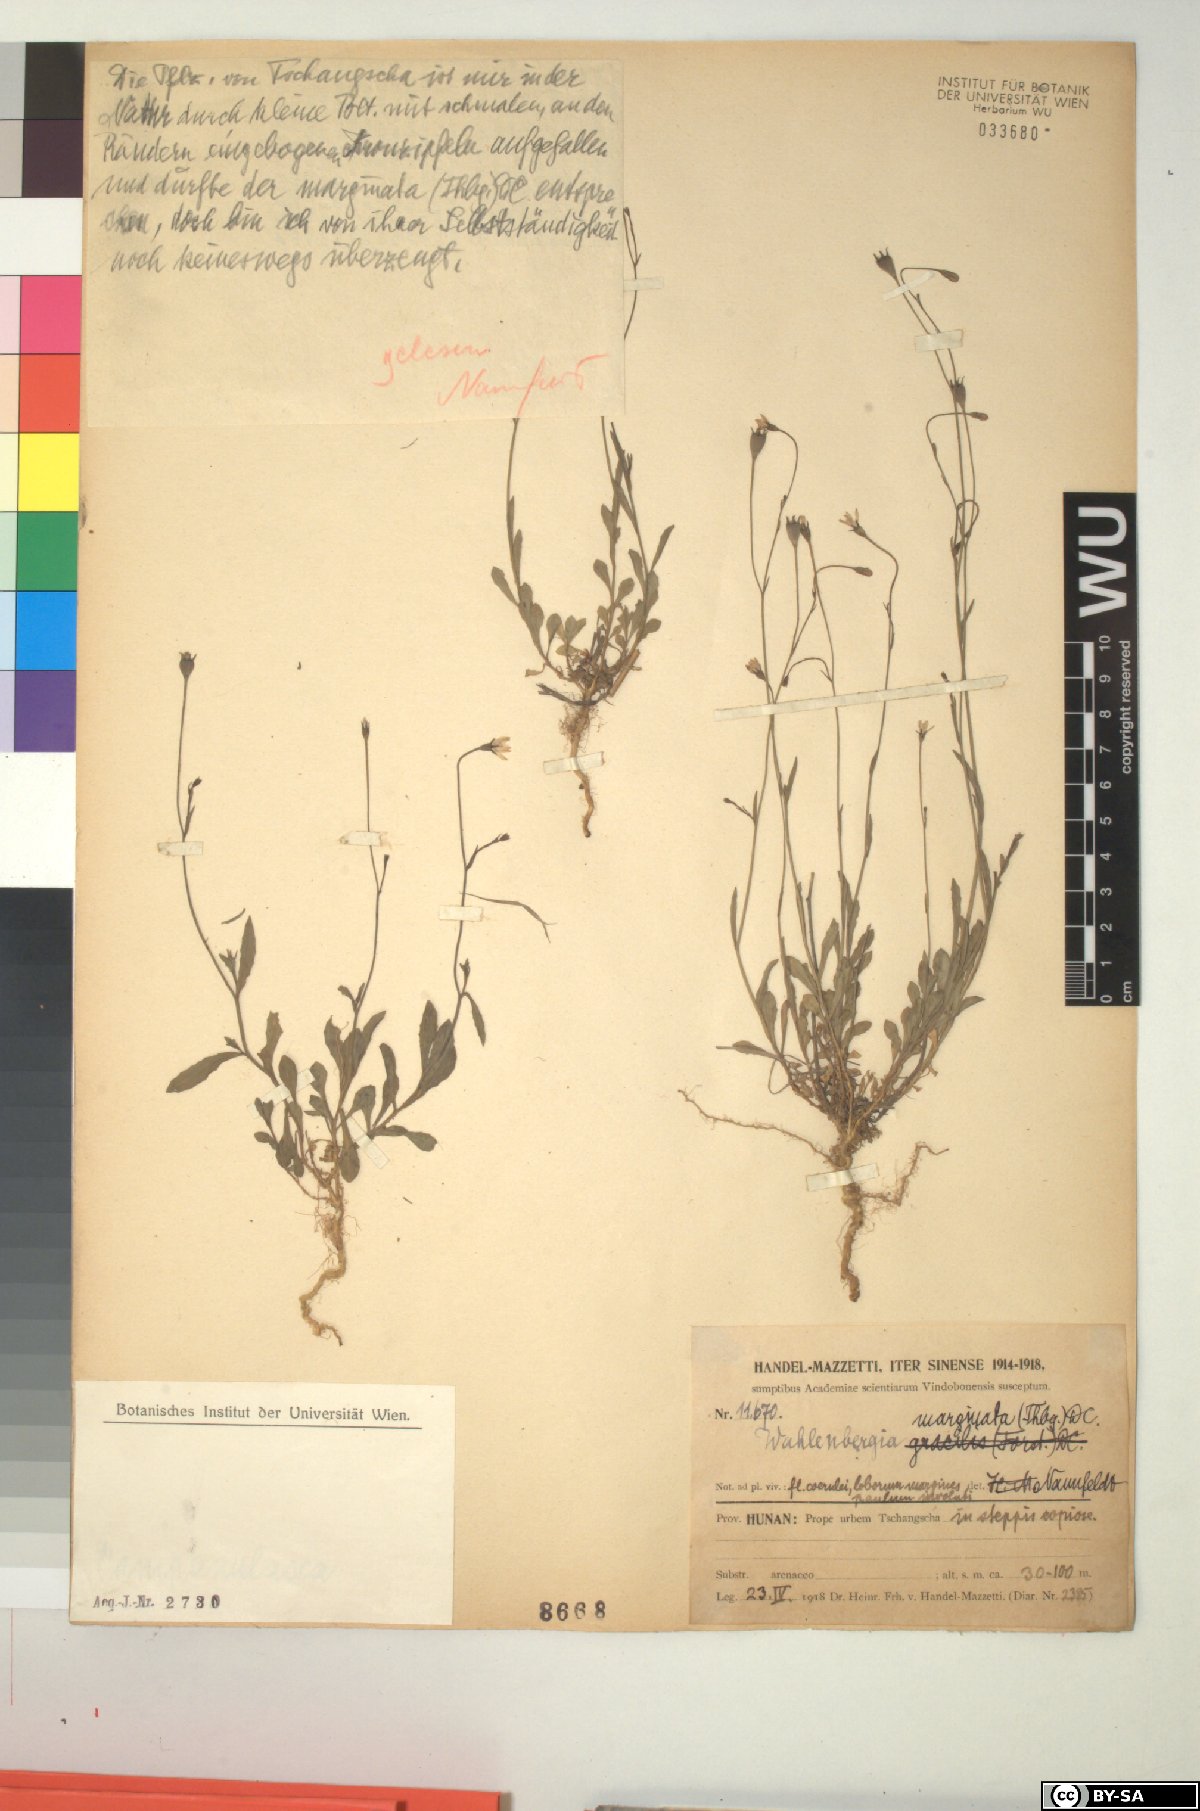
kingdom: Plantae
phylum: Tracheophyta
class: Magnoliopsida
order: Asterales
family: Campanulaceae
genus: Wahlenbergia
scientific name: Wahlenbergia marginata
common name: Southern rockbell
